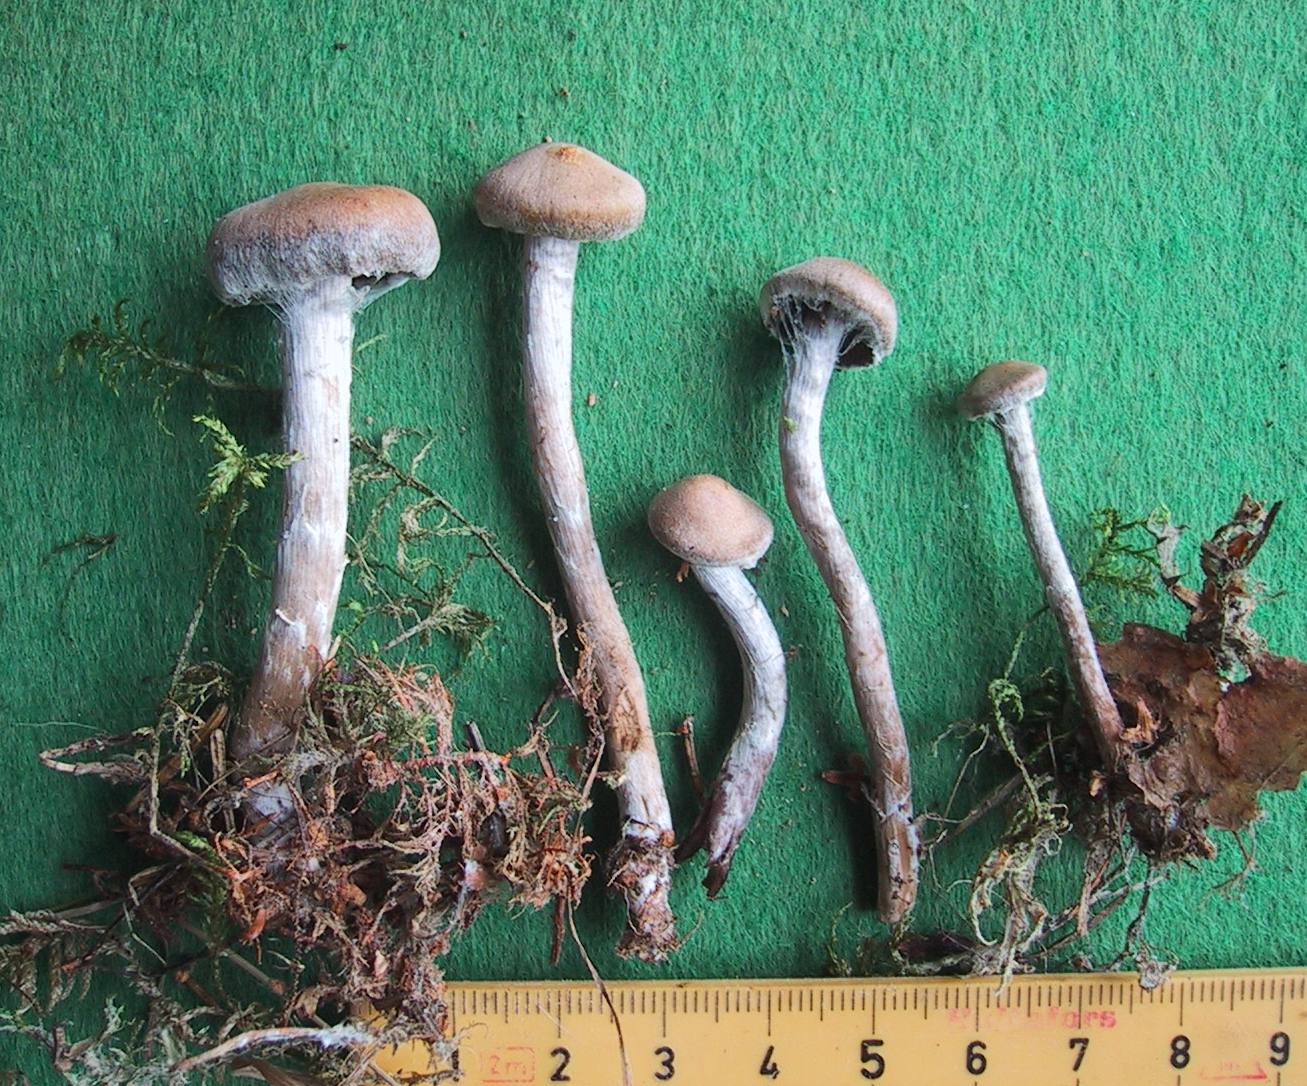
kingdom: Fungi
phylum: Basidiomycota
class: Agaricomycetes
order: Agaricales
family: Cortinariaceae
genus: Cortinarius
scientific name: Cortinarius
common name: pelargonie-slørhat
